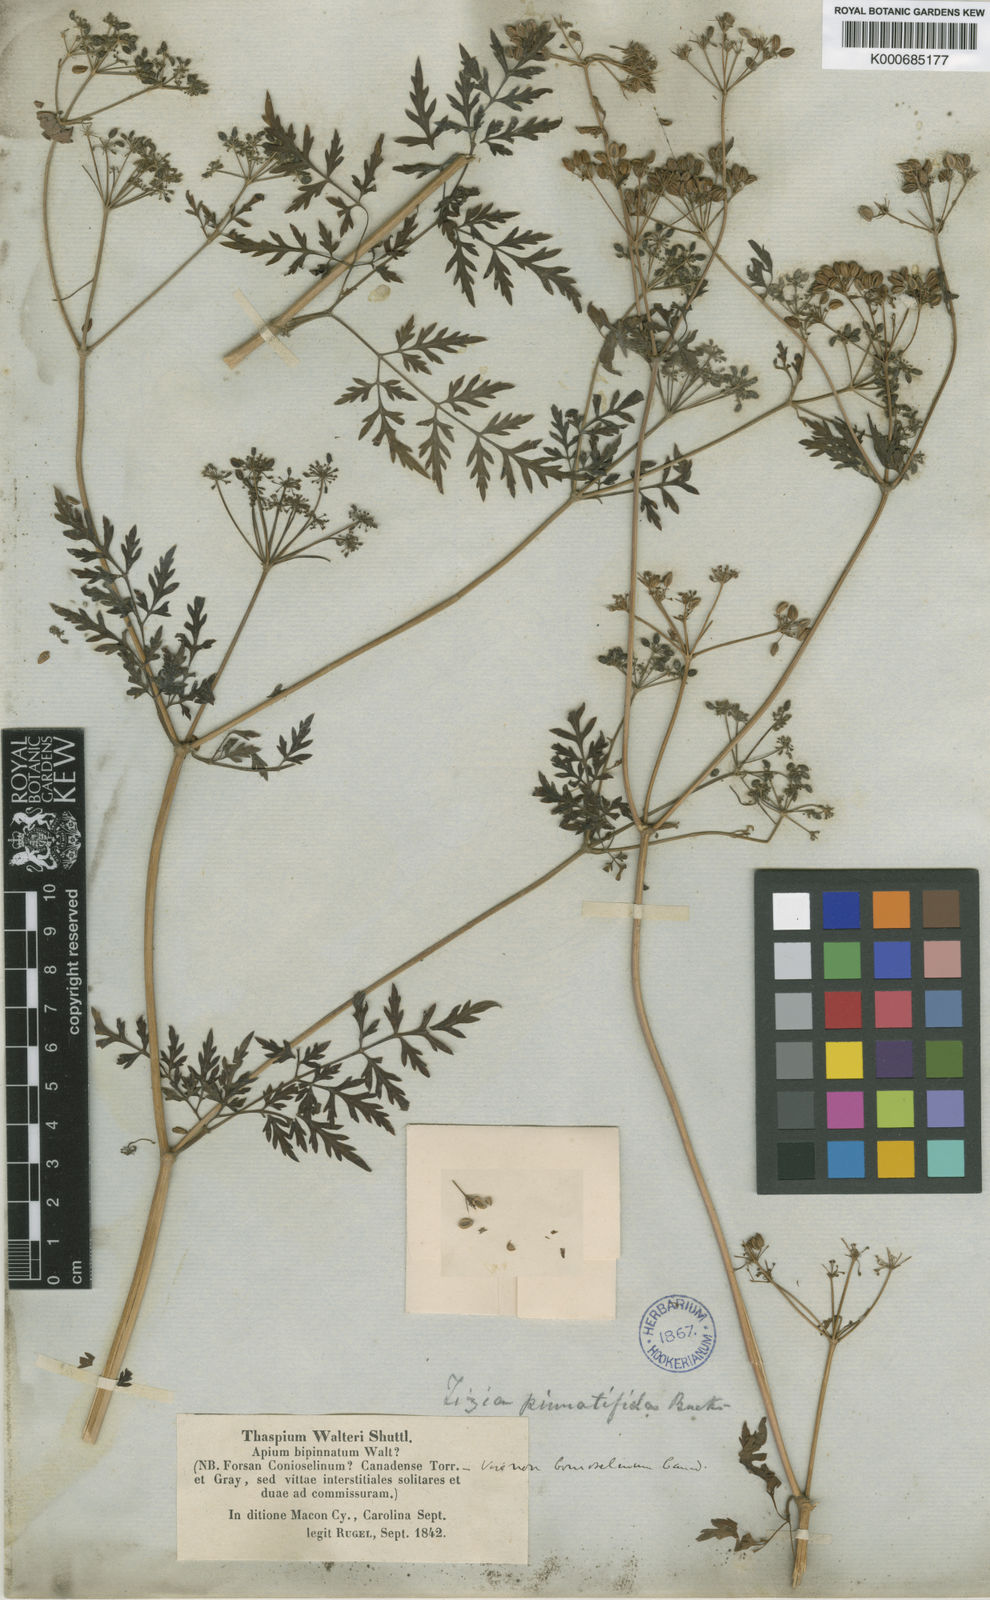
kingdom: Plantae
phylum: Tracheophyta
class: Magnoliopsida
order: Apiales
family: Apiaceae
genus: Thaspium
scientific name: Thaspium pinnatifidum
